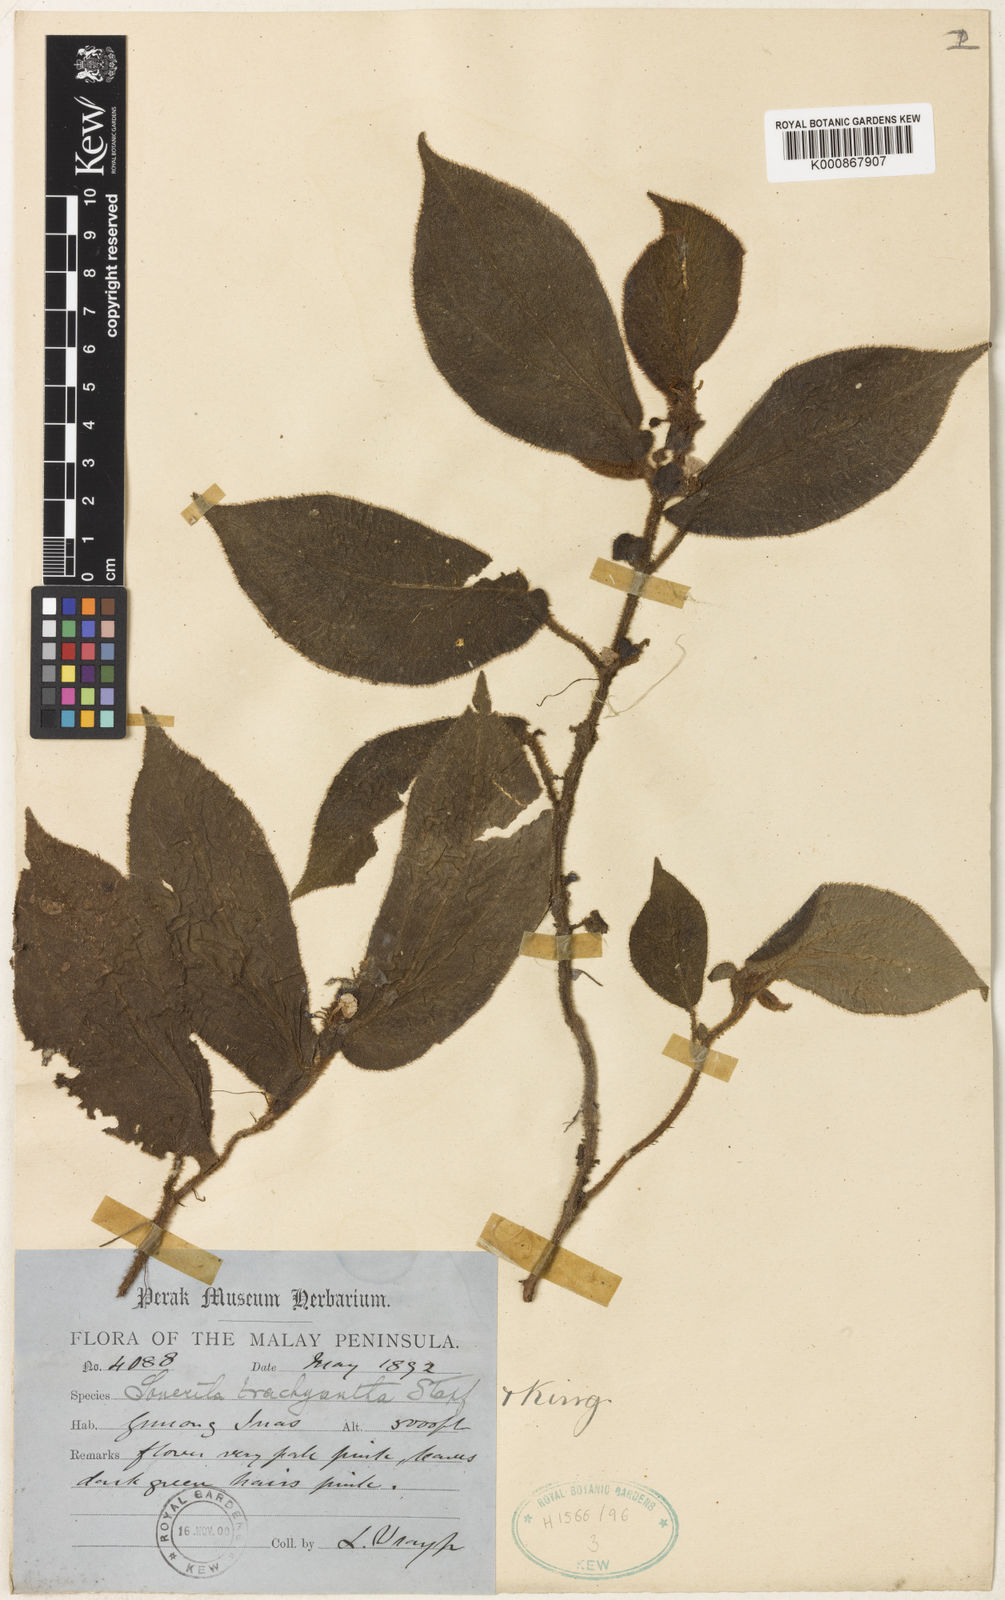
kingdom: Plantae
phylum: Tracheophyta
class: Magnoliopsida
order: Myrtales
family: Melastomataceae
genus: Sonerila
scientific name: Sonerila moluccana
